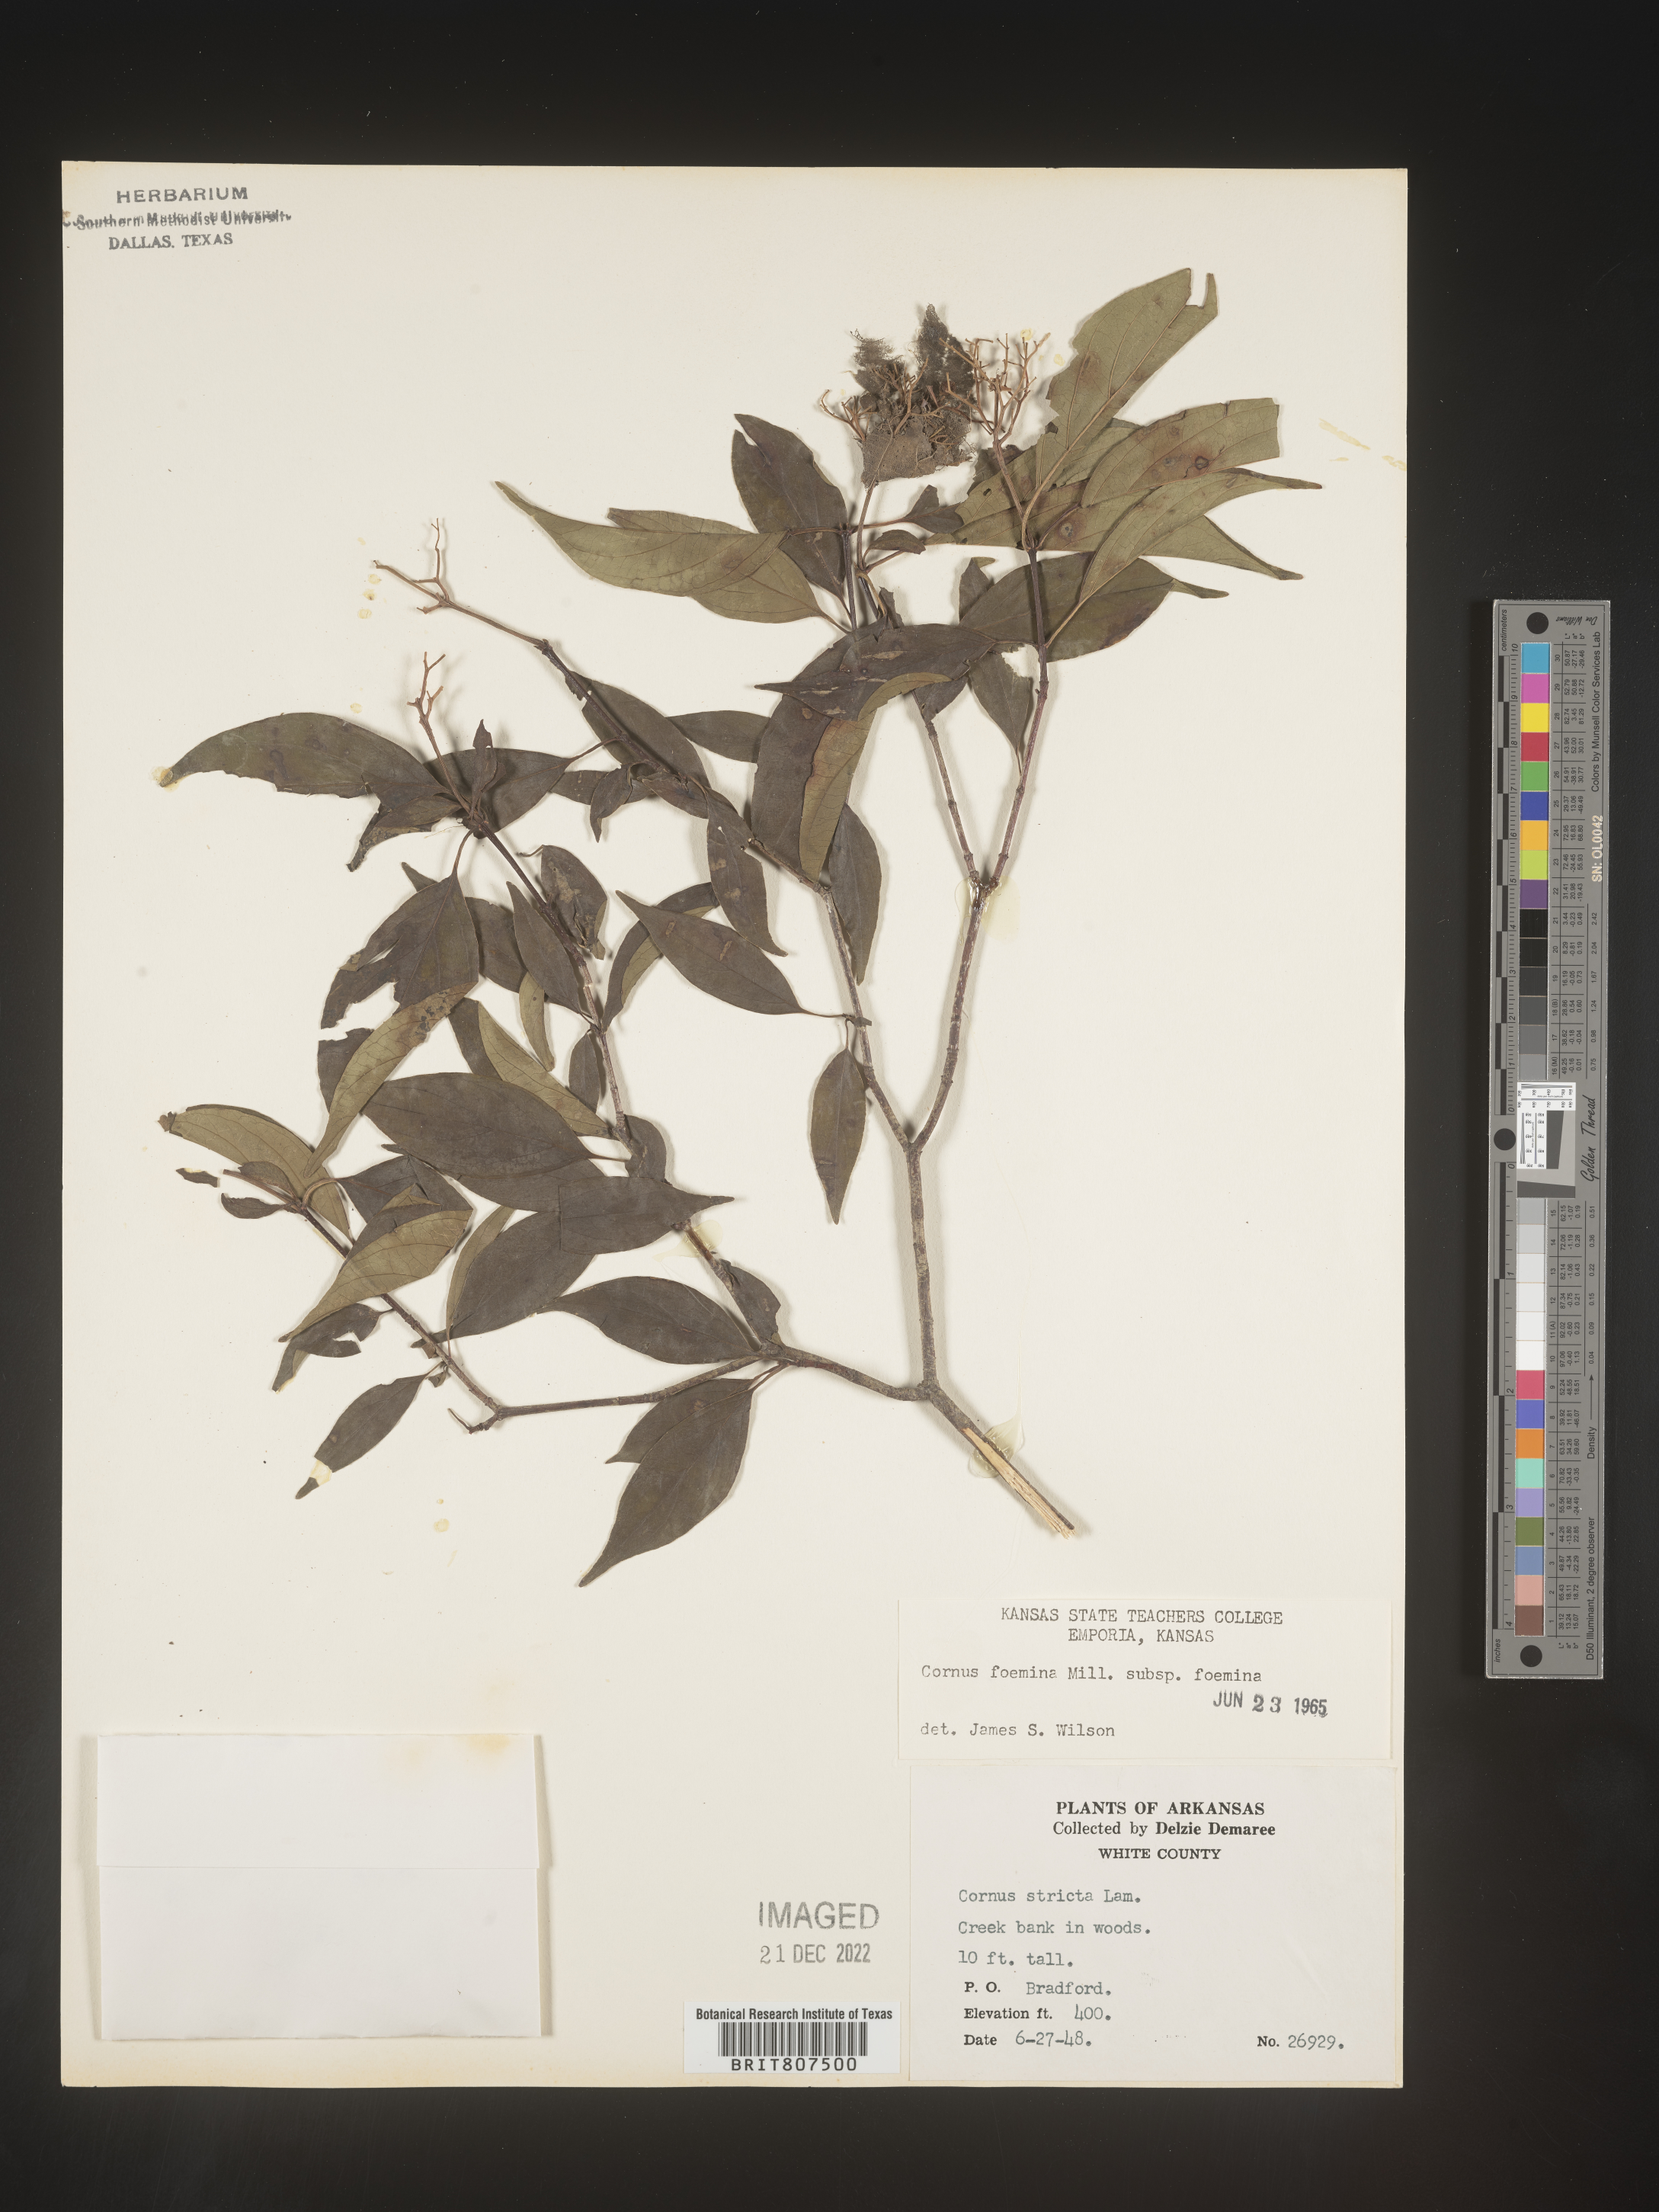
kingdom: Plantae
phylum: Tracheophyta
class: Magnoliopsida
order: Cornales
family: Cornaceae
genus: Cornus
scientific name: Cornus foemina
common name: Swamp dogwood
